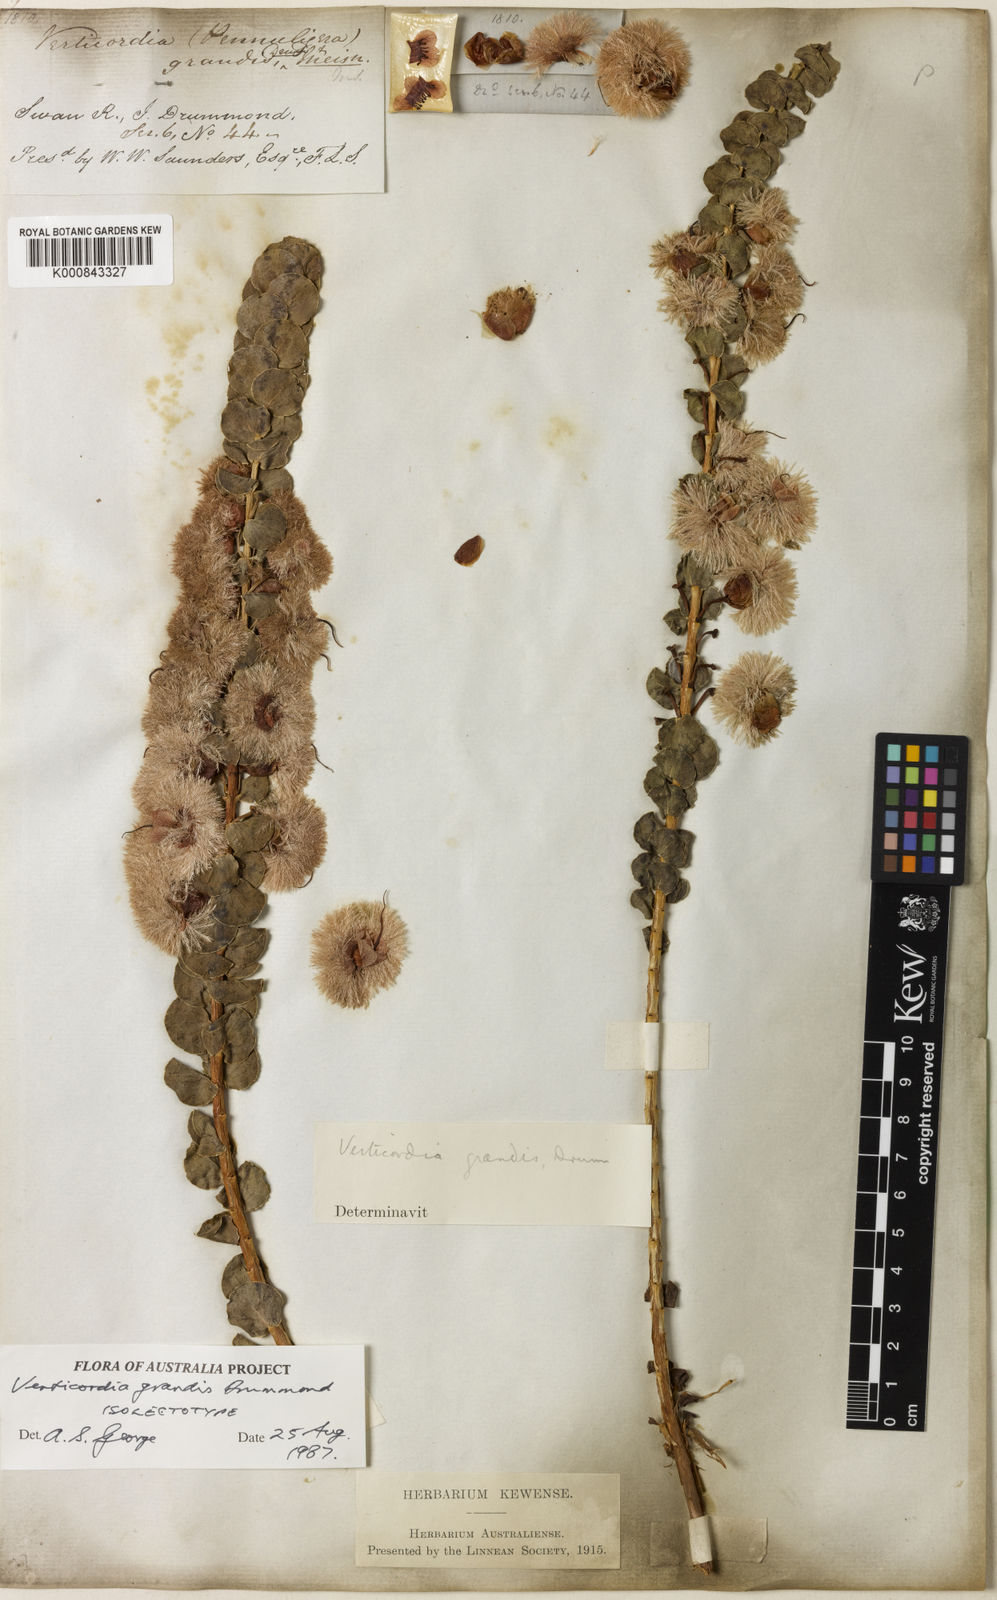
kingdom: Plantae
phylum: Tracheophyta
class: Magnoliopsida
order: Myrtales
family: Myrtaceae
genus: Verticordia
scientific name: Verticordia grandis
